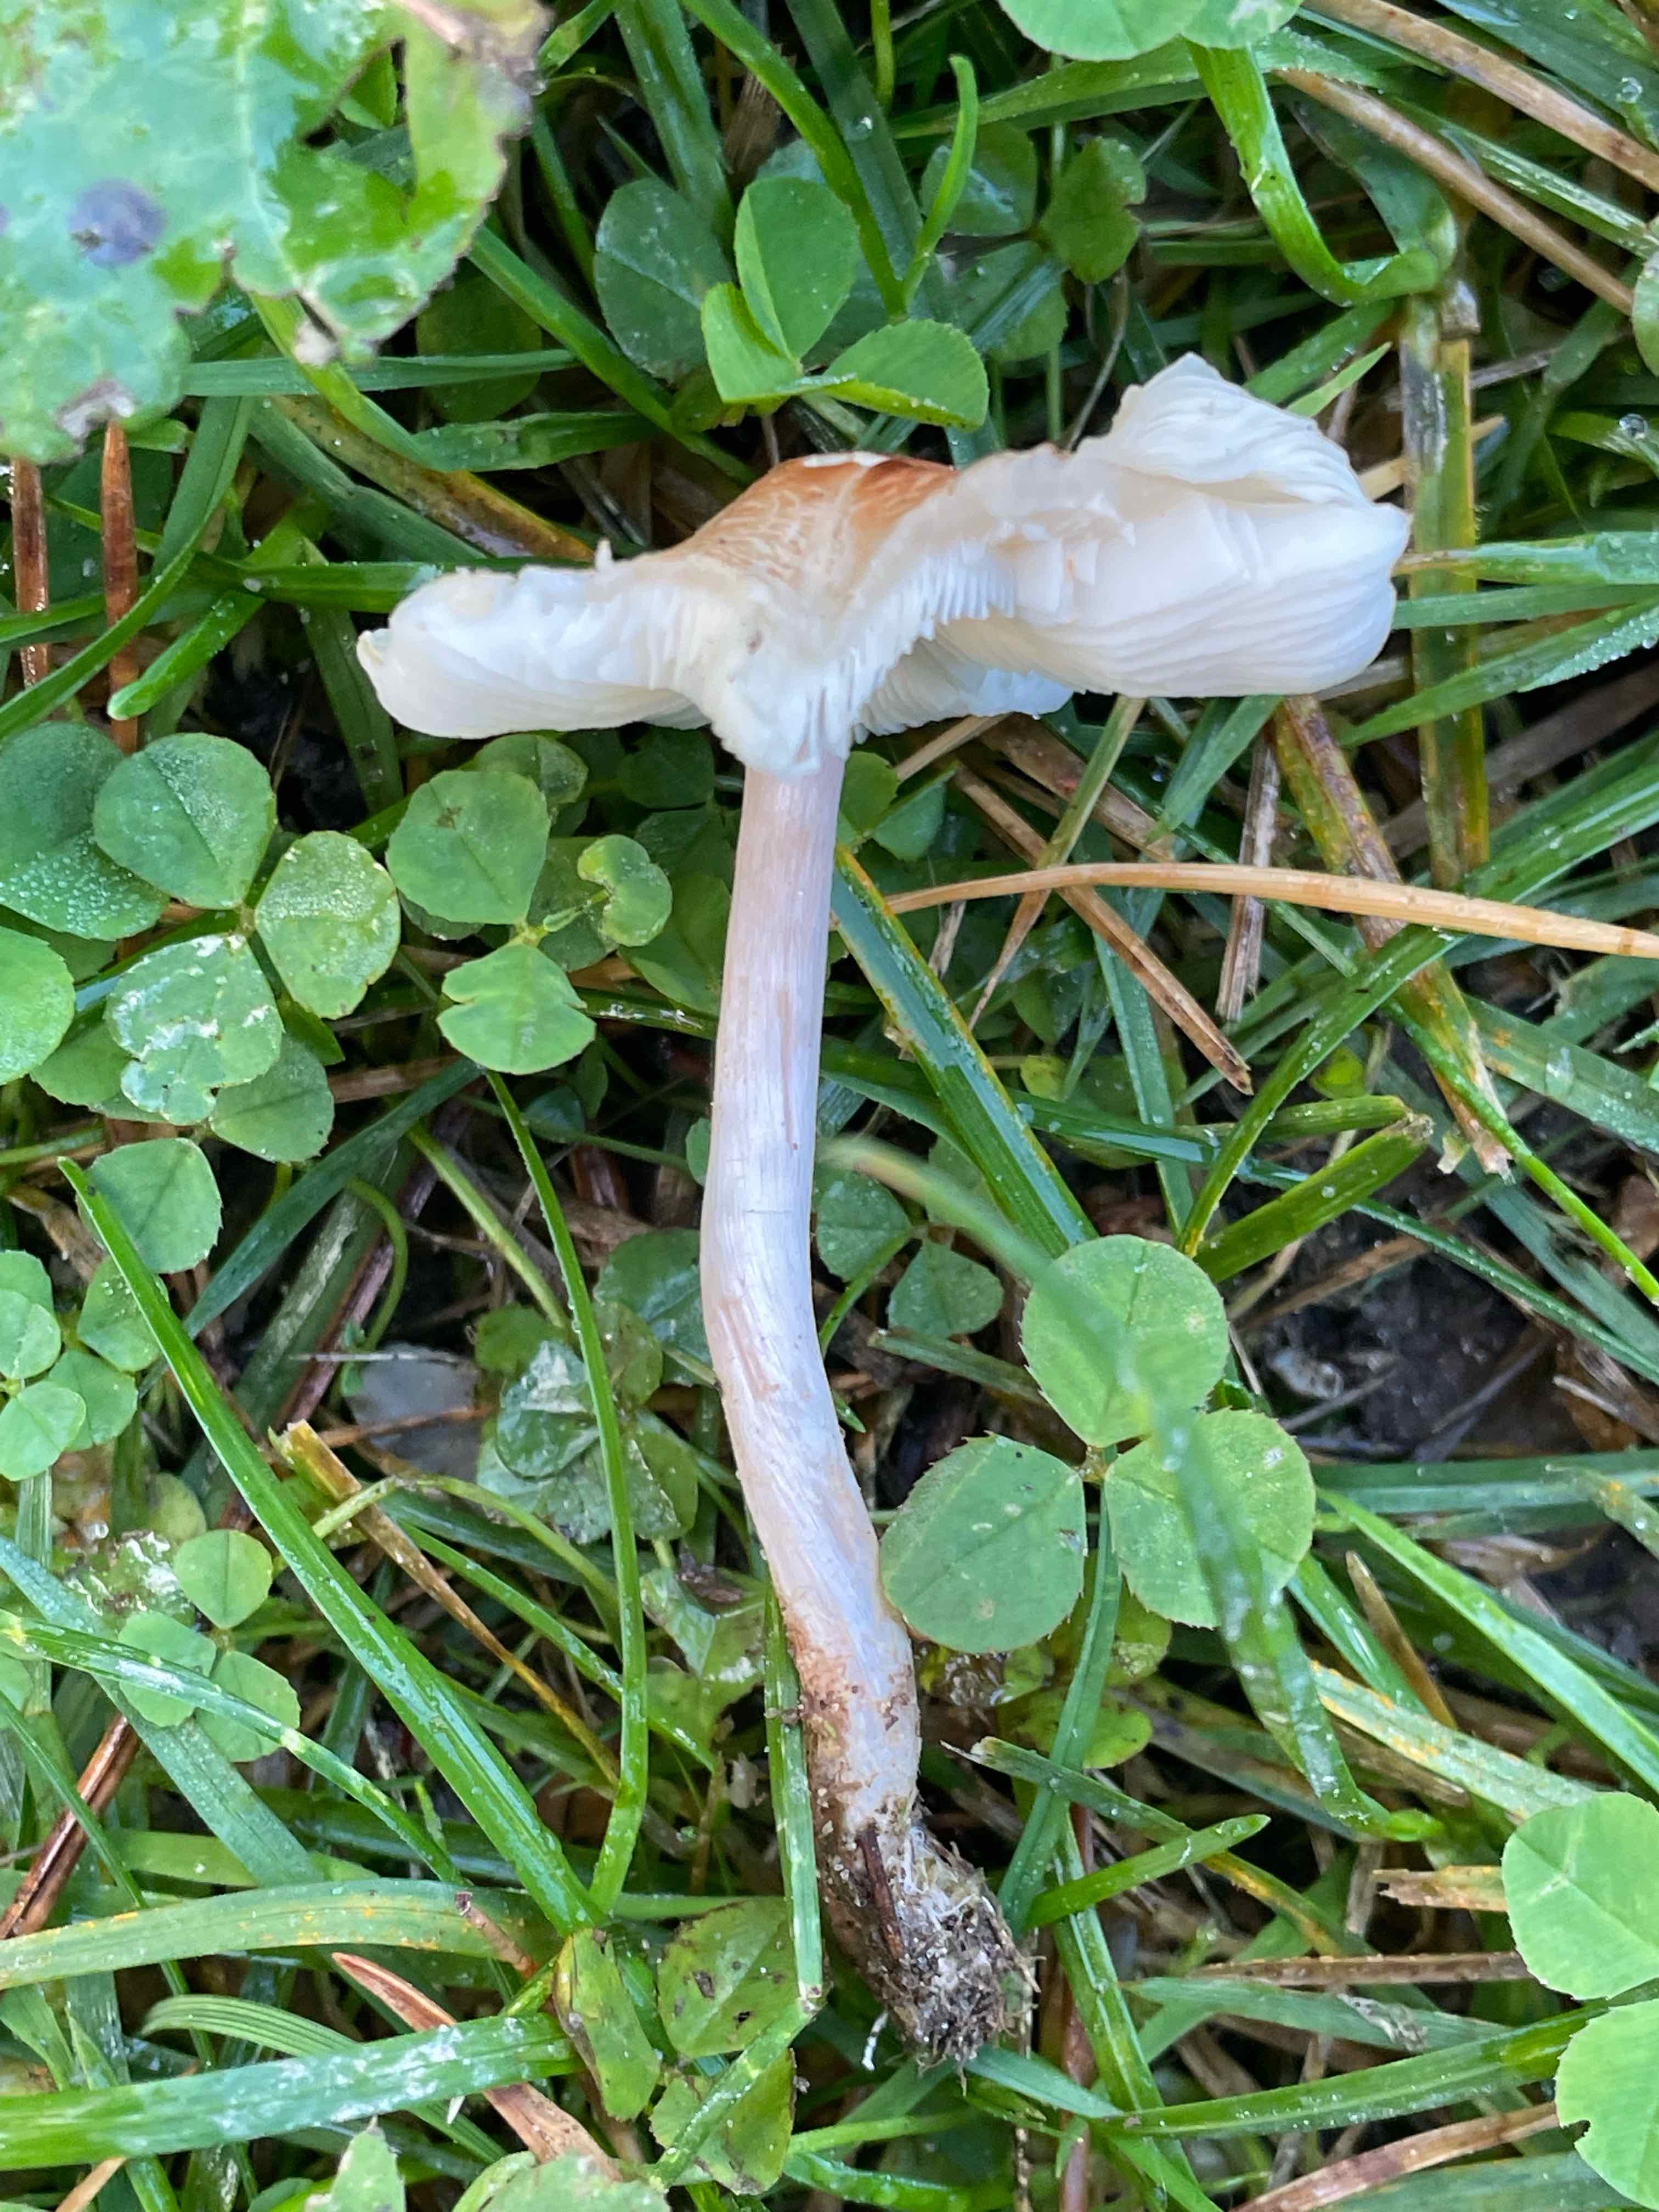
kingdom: Fungi
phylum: Basidiomycota
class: Agaricomycetes
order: Agaricales
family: Agaricaceae
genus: Lepiota
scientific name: Lepiota cristata
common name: stinkende parasolhat
